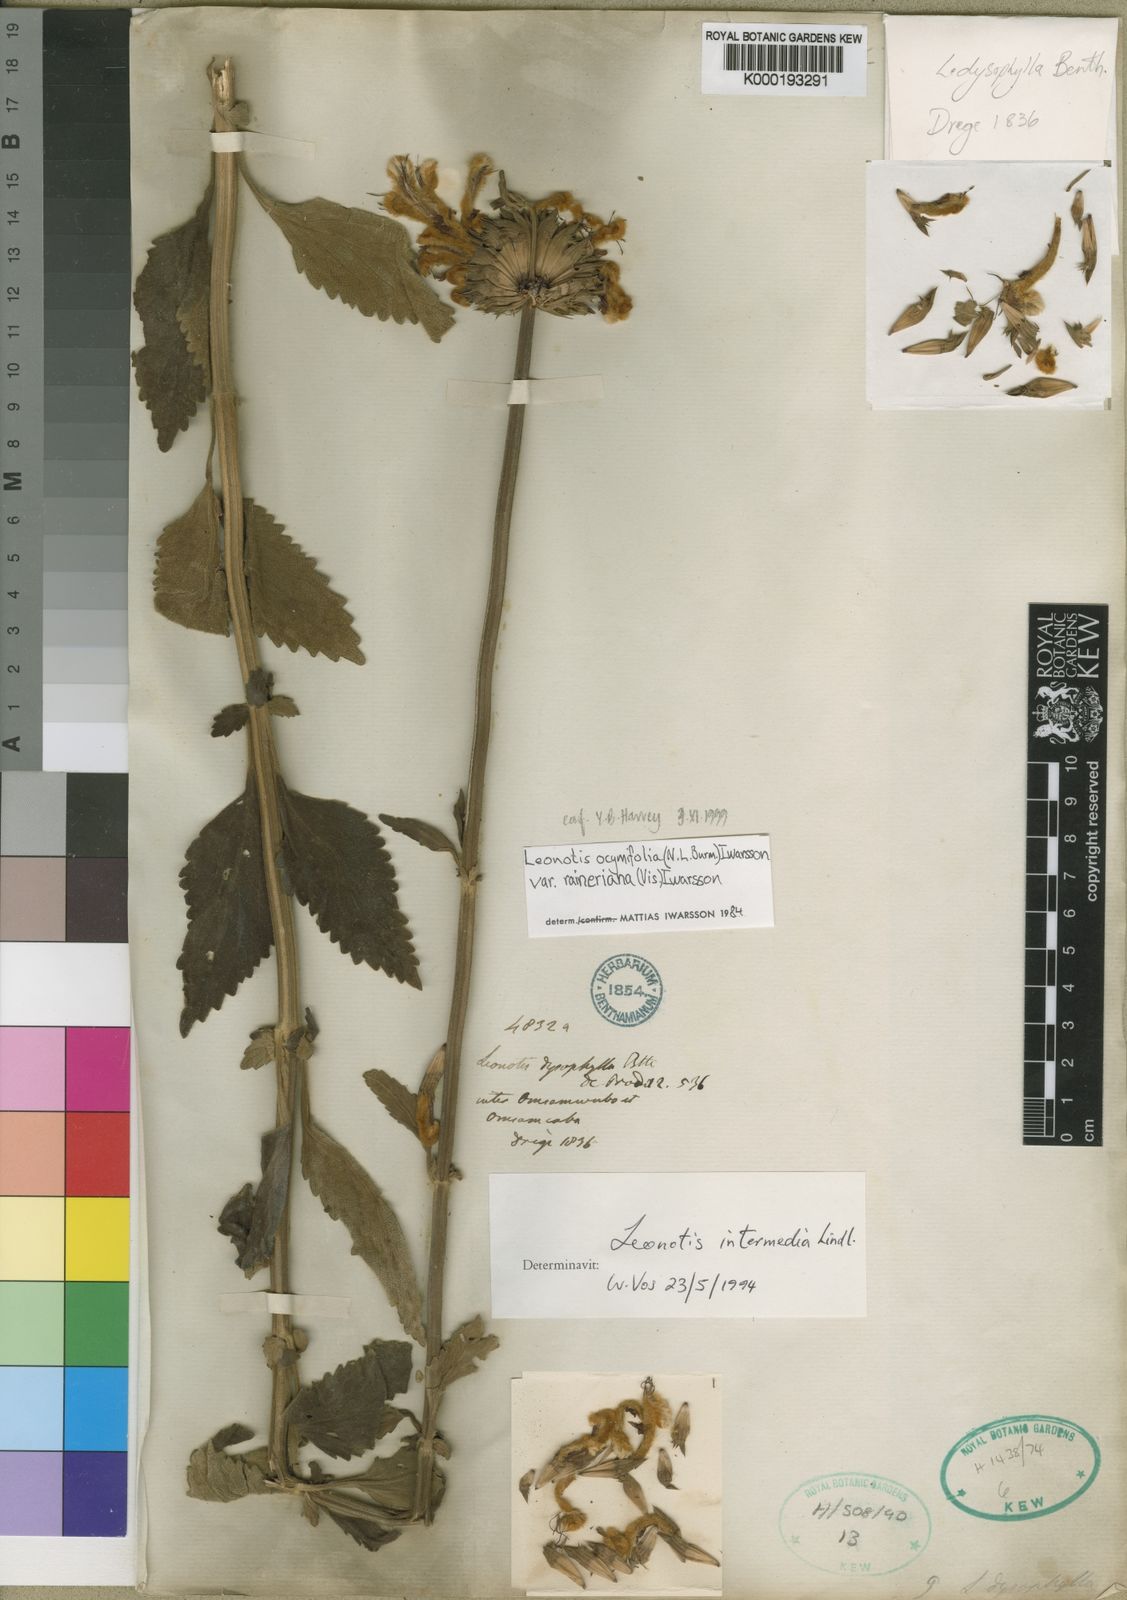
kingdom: Plantae
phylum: Tracheophyta
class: Magnoliopsida
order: Lamiales
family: Lamiaceae
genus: Leonotis
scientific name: Leonotis ocymifolia
